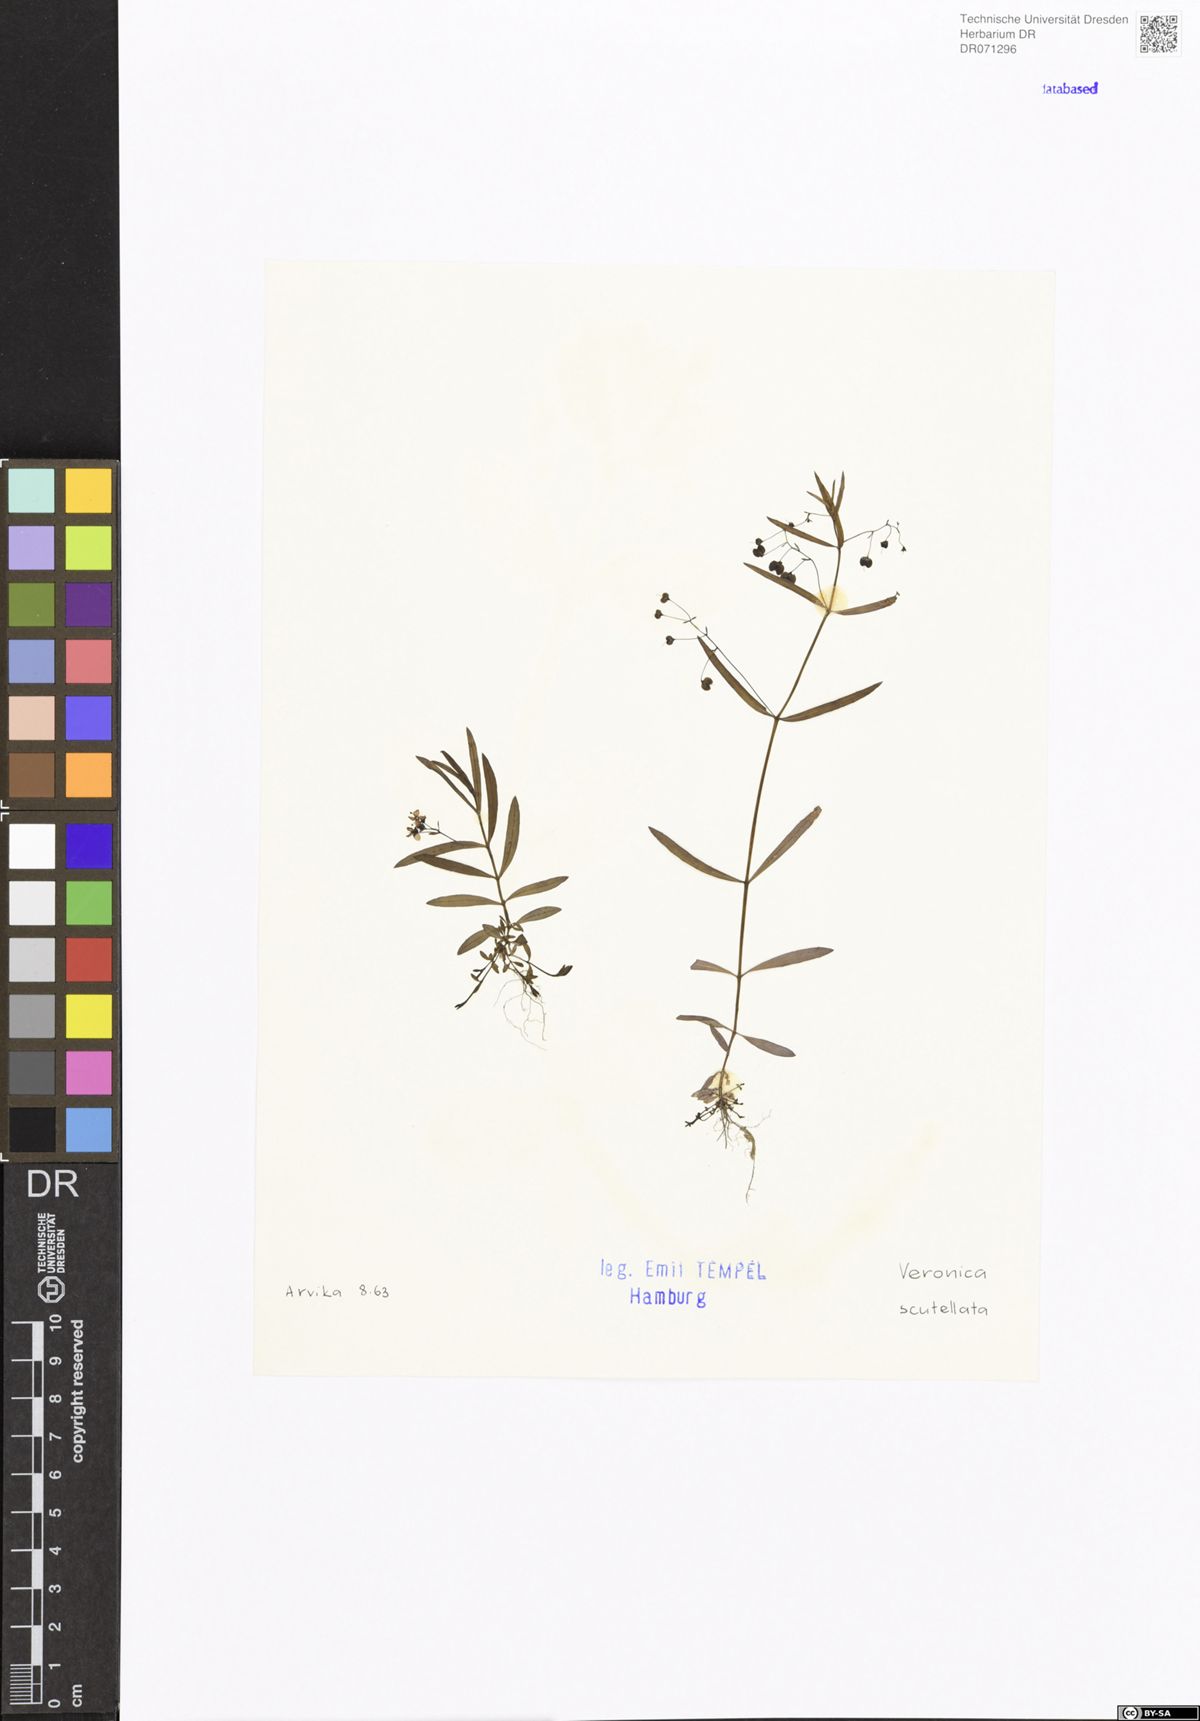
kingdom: Plantae
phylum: Tracheophyta
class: Magnoliopsida
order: Lamiales
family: Plantaginaceae
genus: Veronica
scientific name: Veronica scutellata
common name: Marsh speedwell
